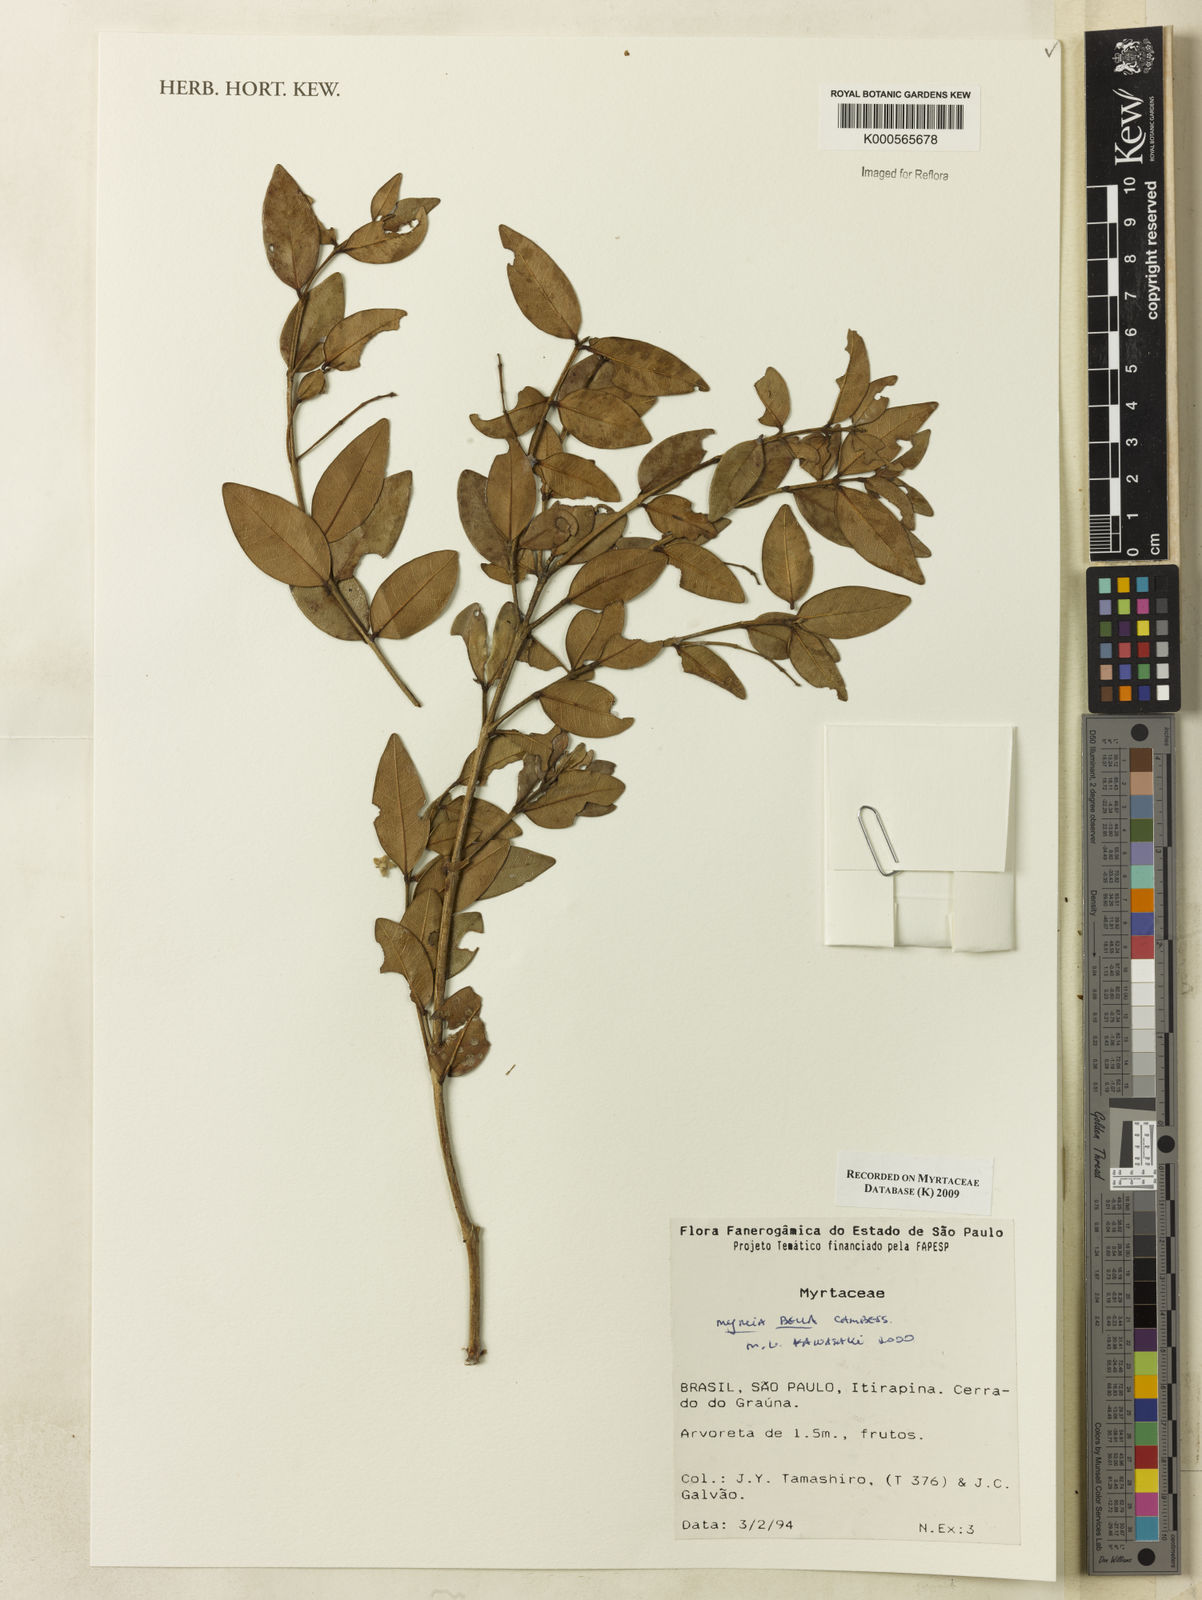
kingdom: Plantae
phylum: Tracheophyta
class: Magnoliopsida
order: Myrtales
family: Myrtaceae
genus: Myrcia
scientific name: Myrcia bella
